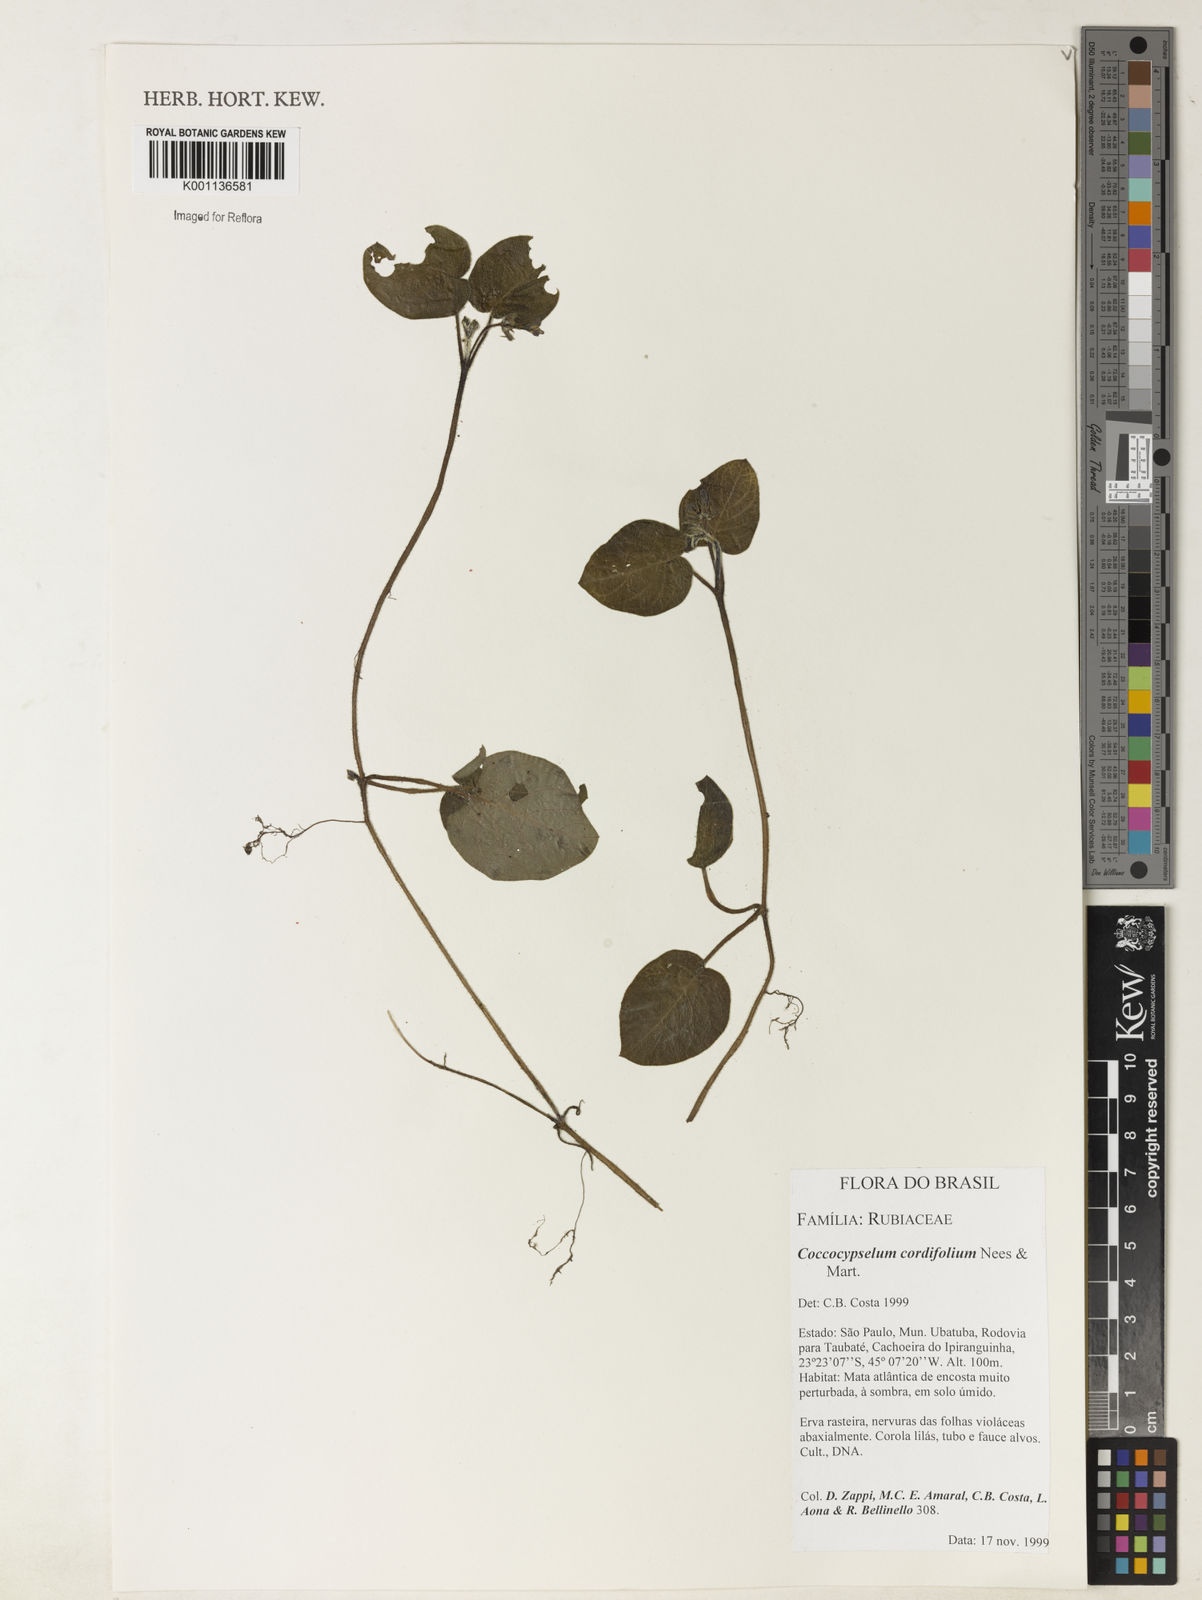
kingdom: Plantae
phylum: Tracheophyta
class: Magnoliopsida
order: Gentianales
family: Rubiaceae
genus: Coccocypselum
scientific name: Coccocypselum cordifolium
